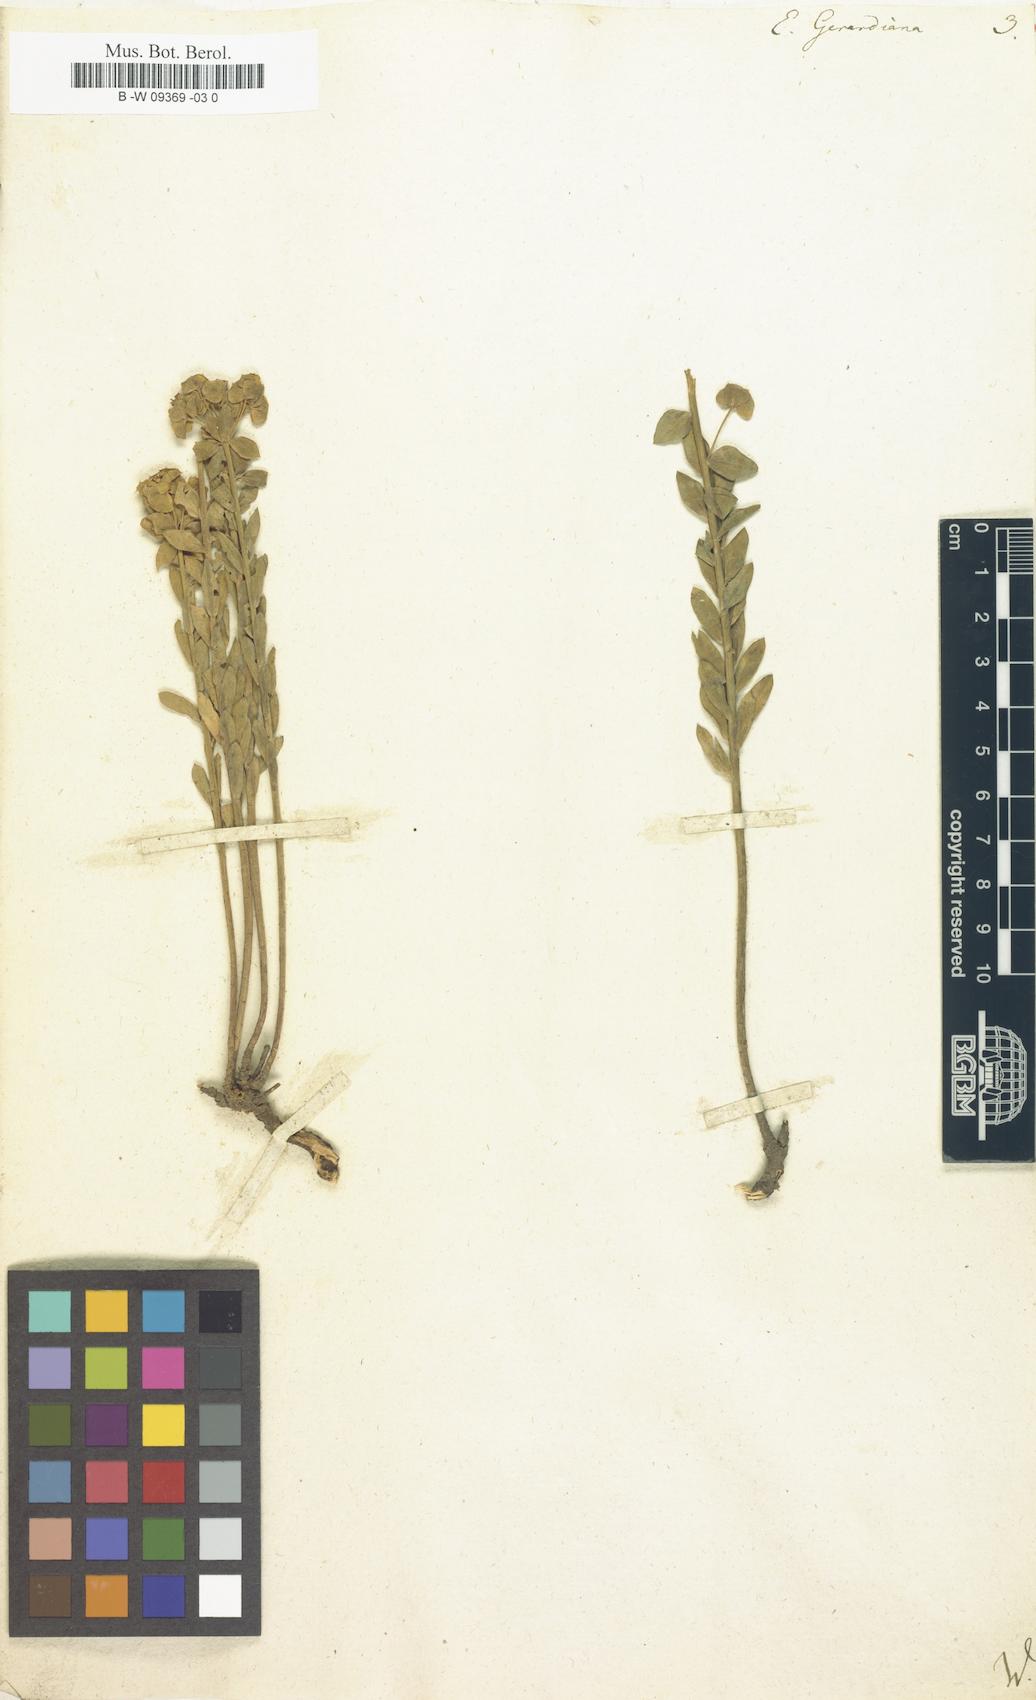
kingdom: Plantae
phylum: Tracheophyta
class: Magnoliopsida
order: Malpighiales
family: Euphorbiaceae
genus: Euphorbia
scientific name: Euphorbia seguieriana
